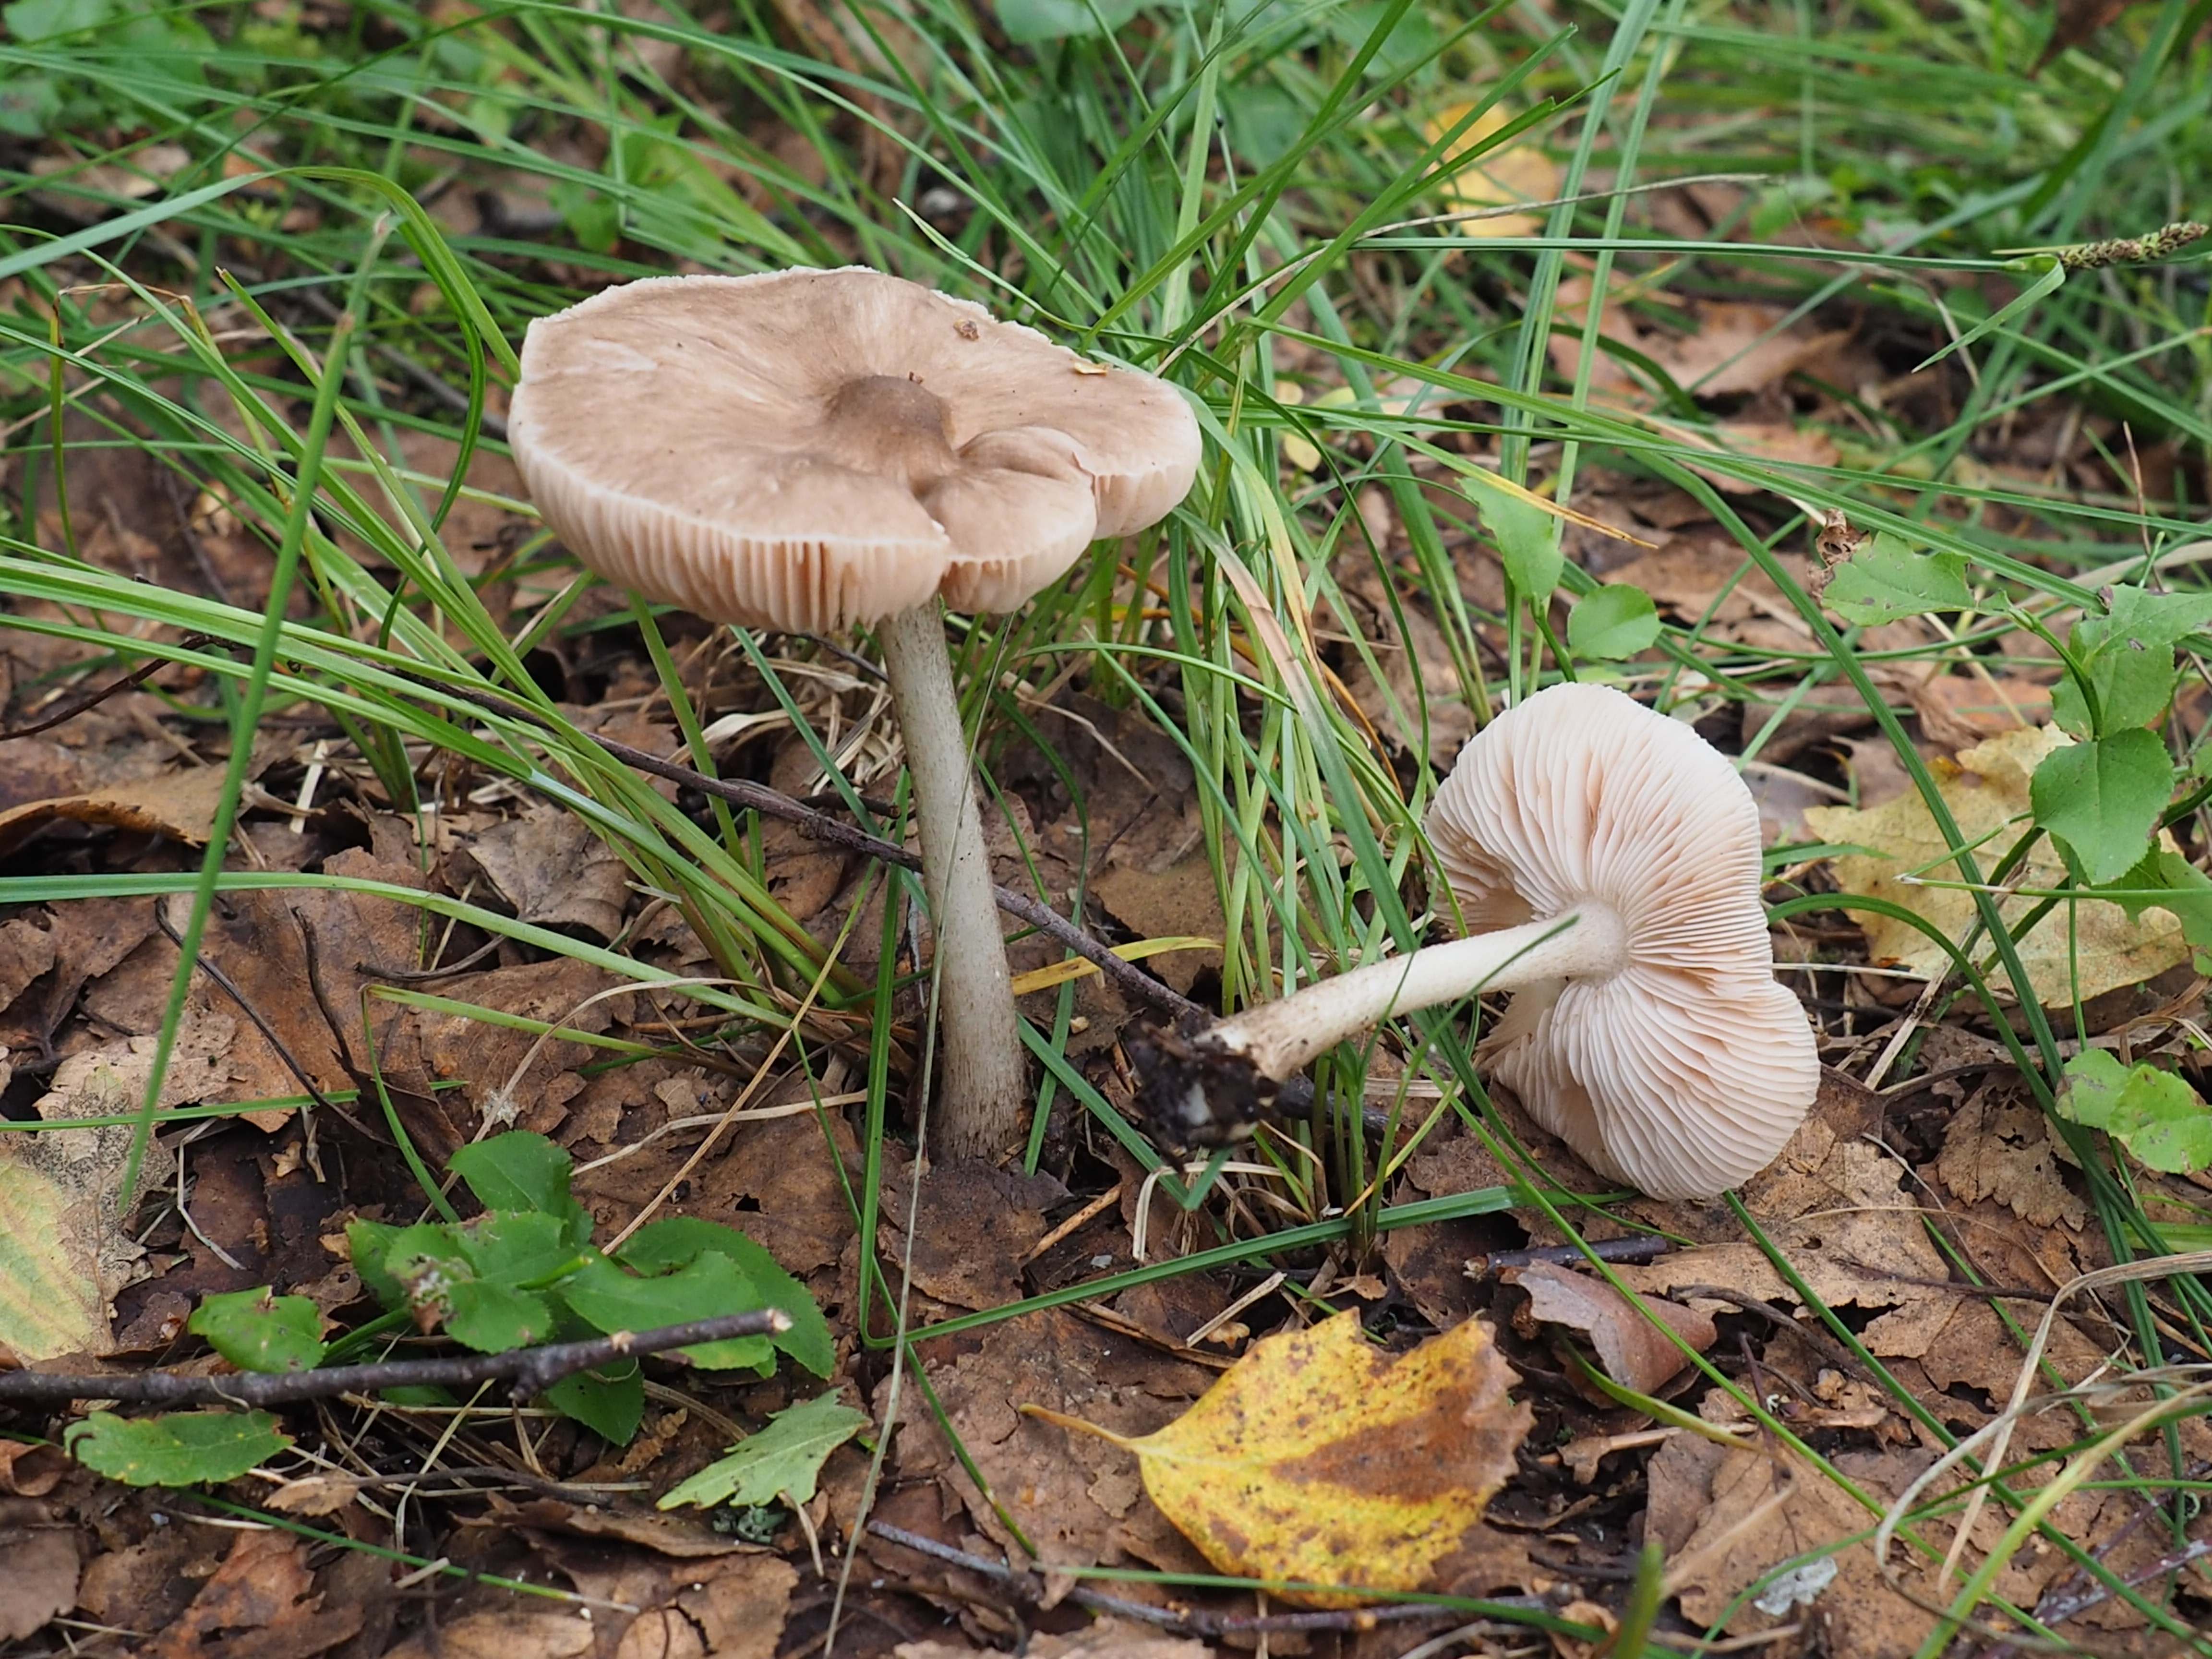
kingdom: Fungi
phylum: Basidiomycota
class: Agaricomycetes
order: Agaricales
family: Pluteaceae
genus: Pluteus
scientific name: Pluteus cervinus
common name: Deer shield
